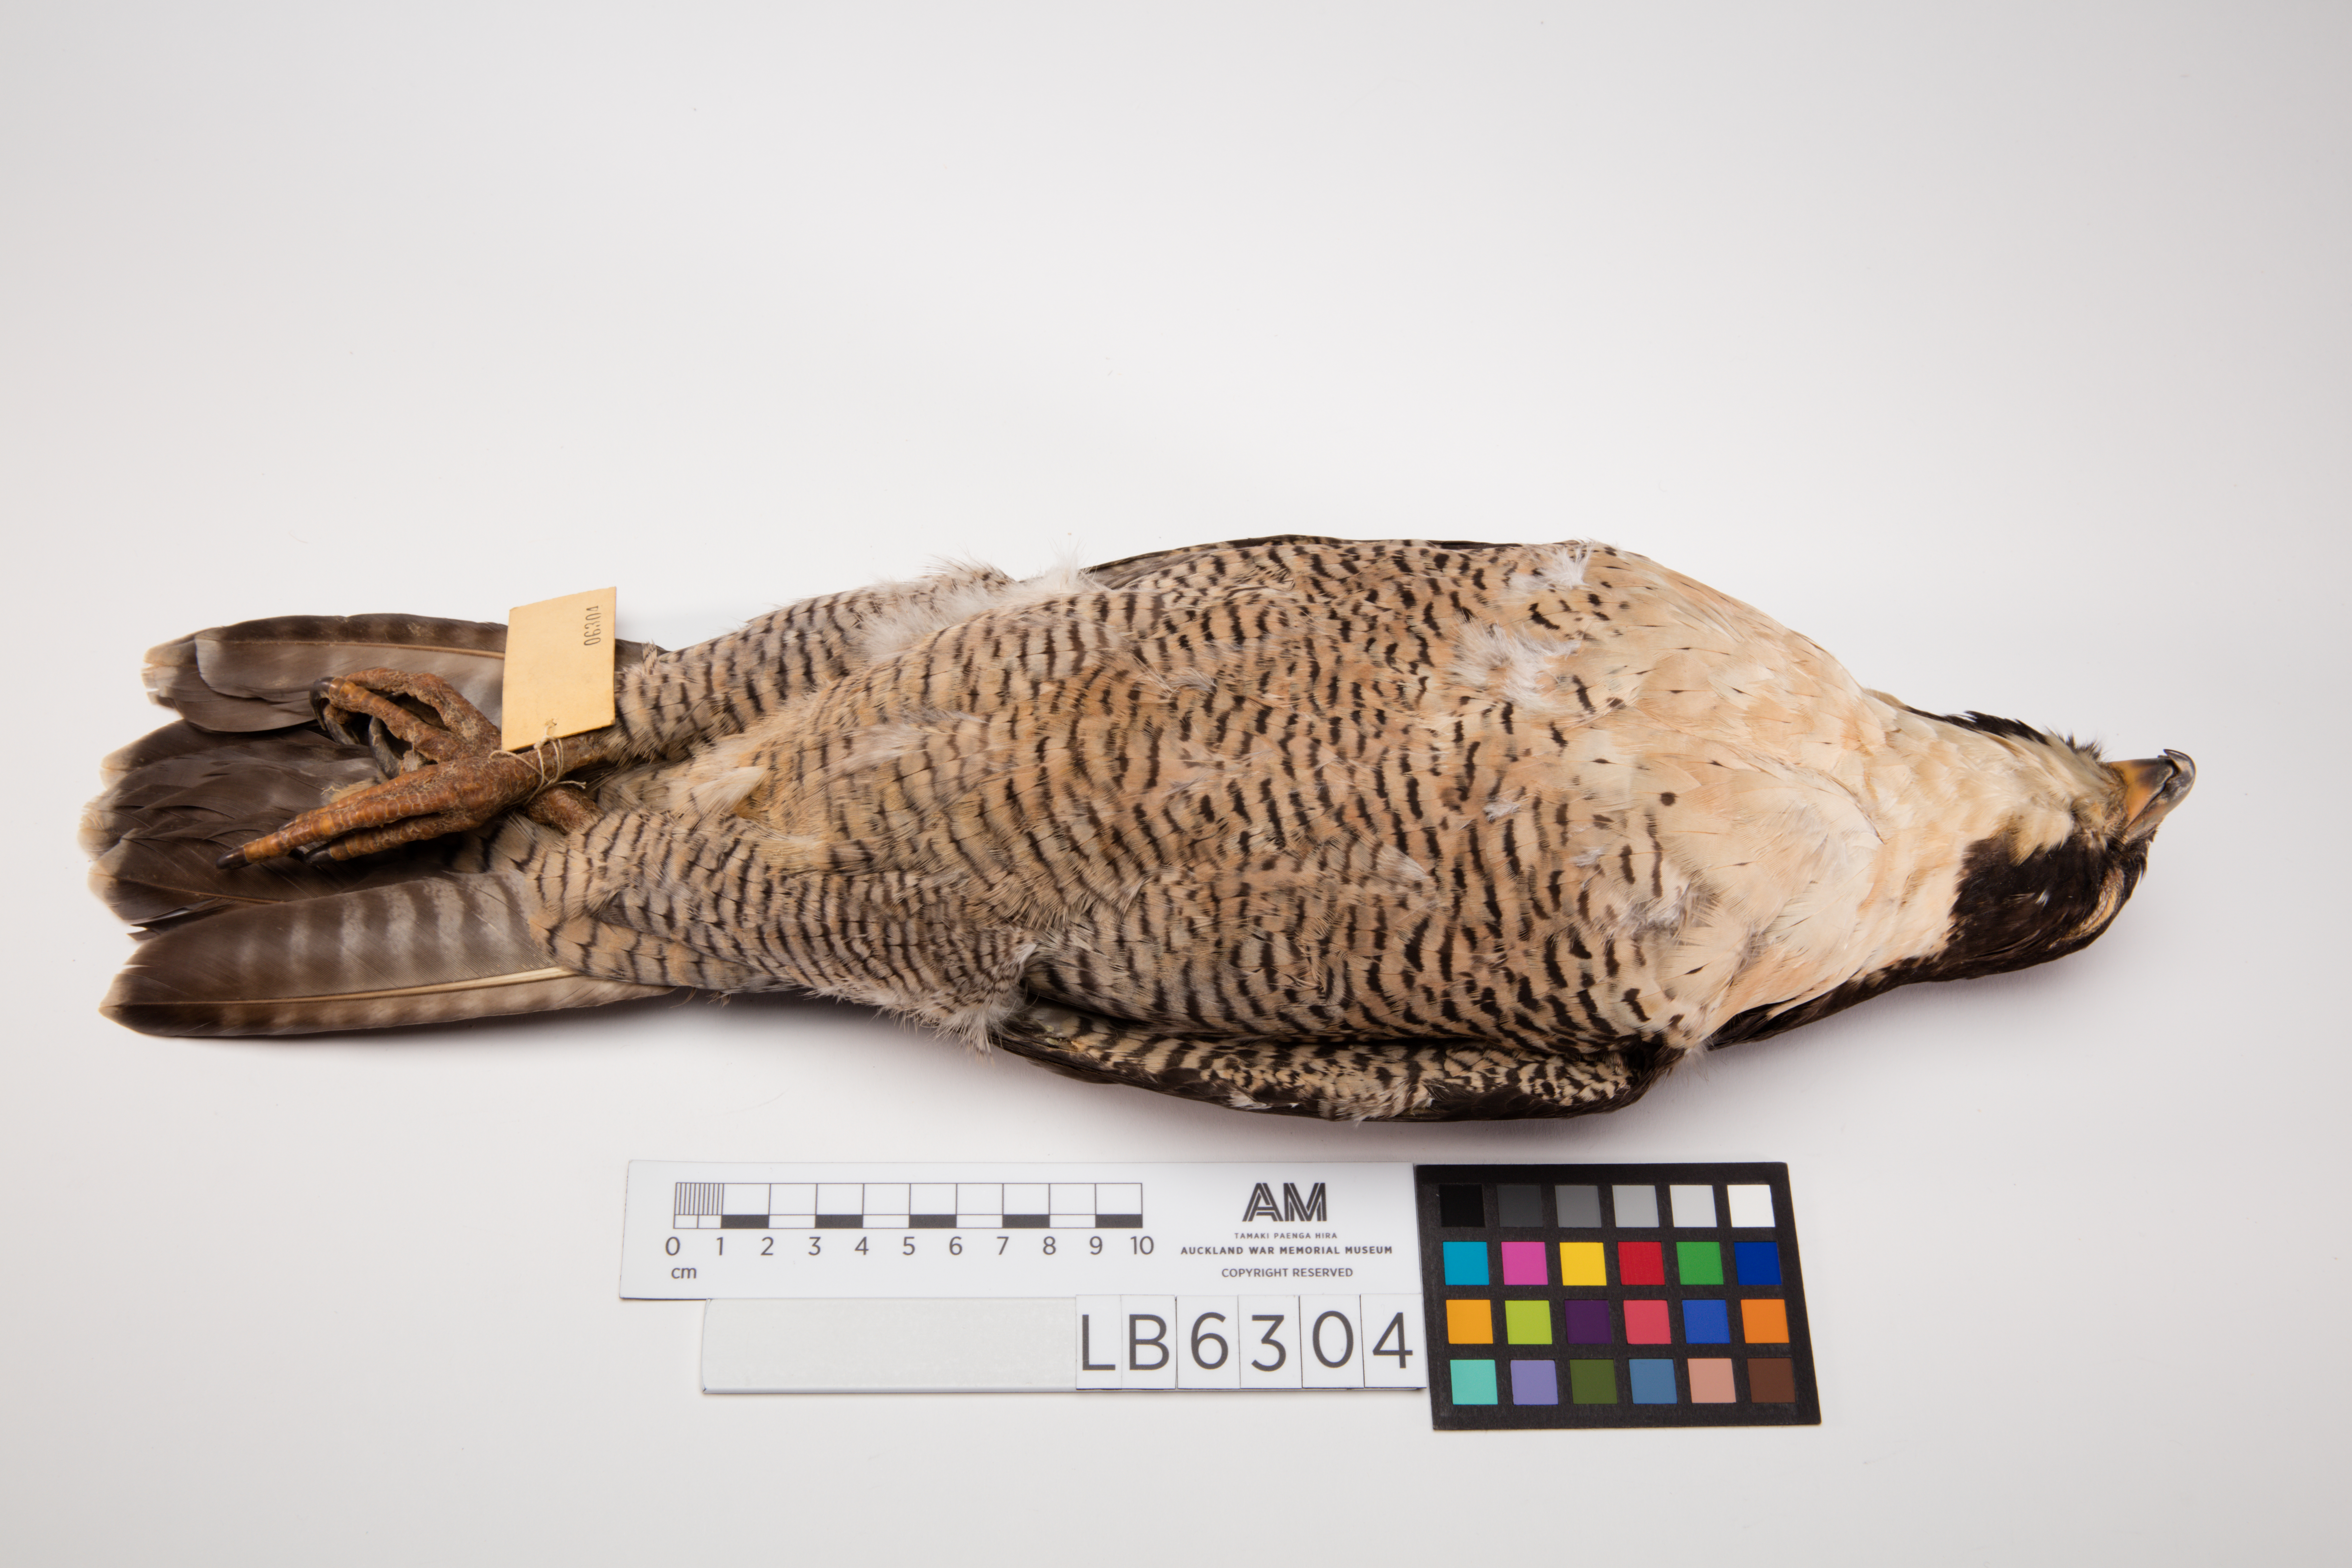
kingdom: Animalia
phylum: Chordata
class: Aves
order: Falconiformes
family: Falconidae
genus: Falco
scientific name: Falco peregrinus
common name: Peregrine falcon
